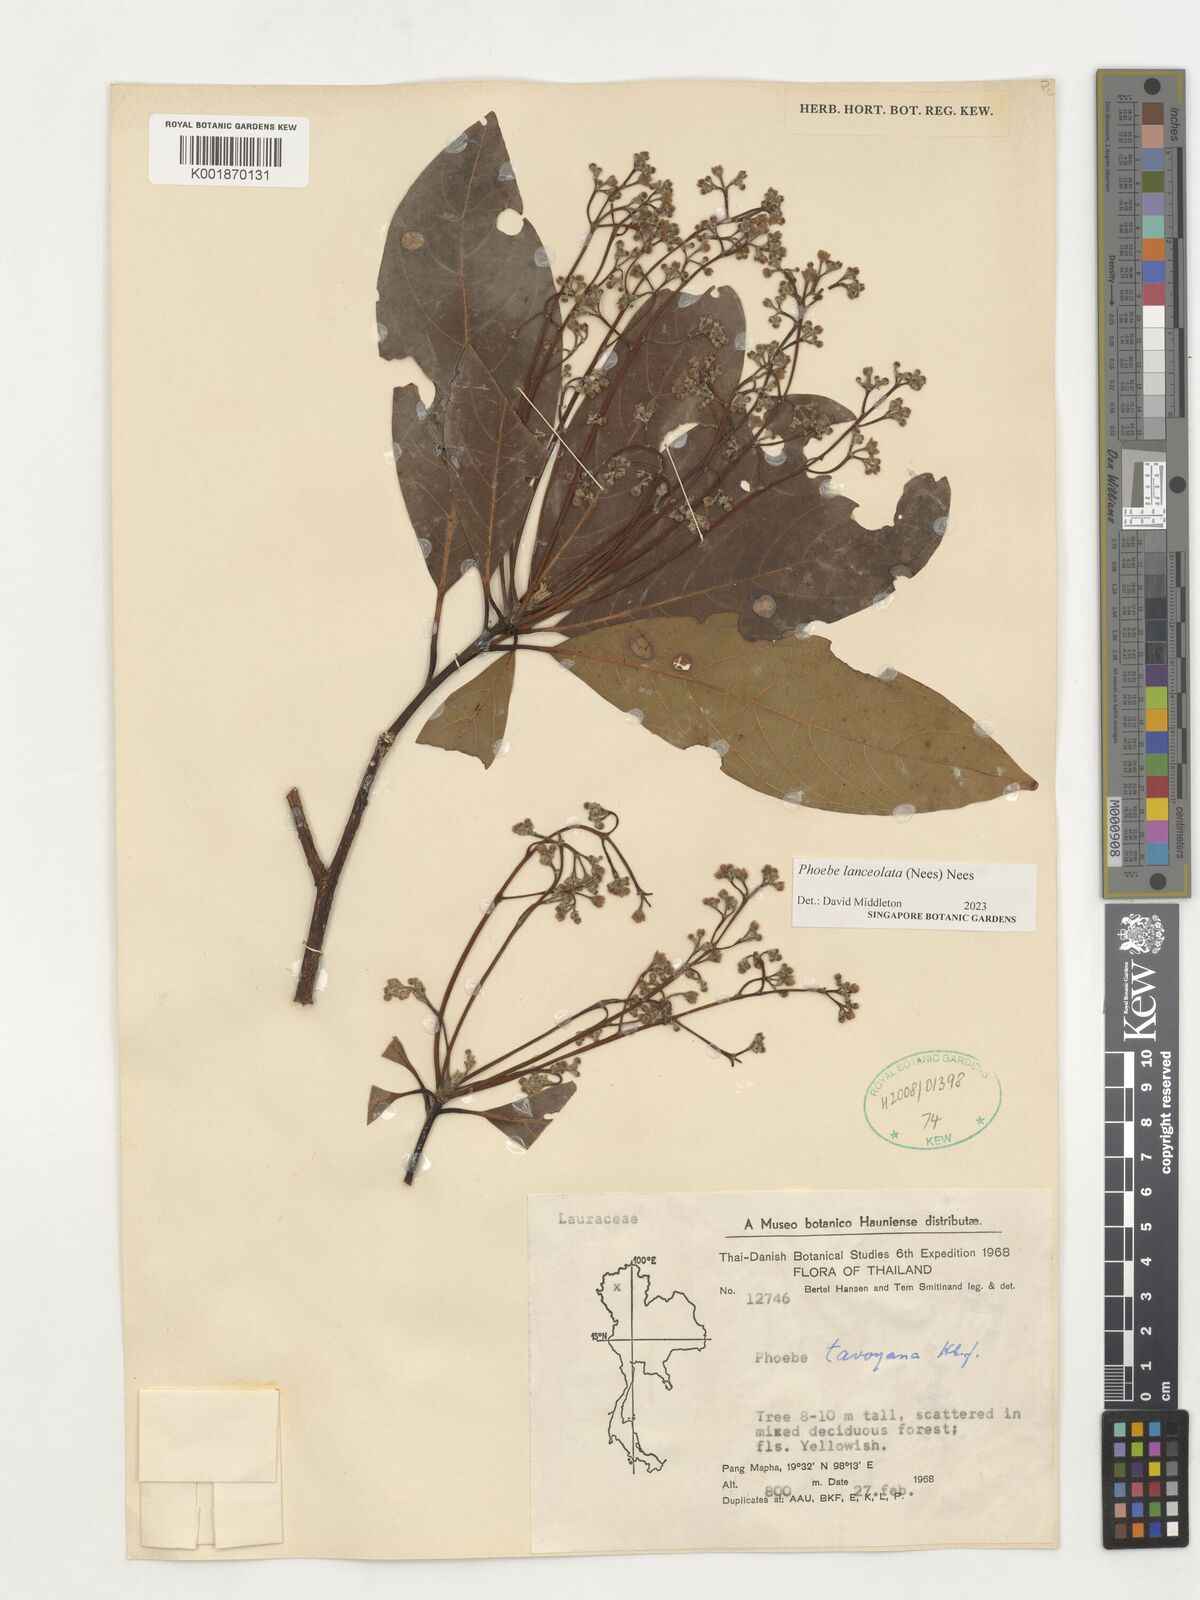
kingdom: Plantae
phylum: Tracheophyta
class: Magnoliopsida
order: Laurales
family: Lauraceae
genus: Phoebe
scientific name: Phoebe lanceolata
